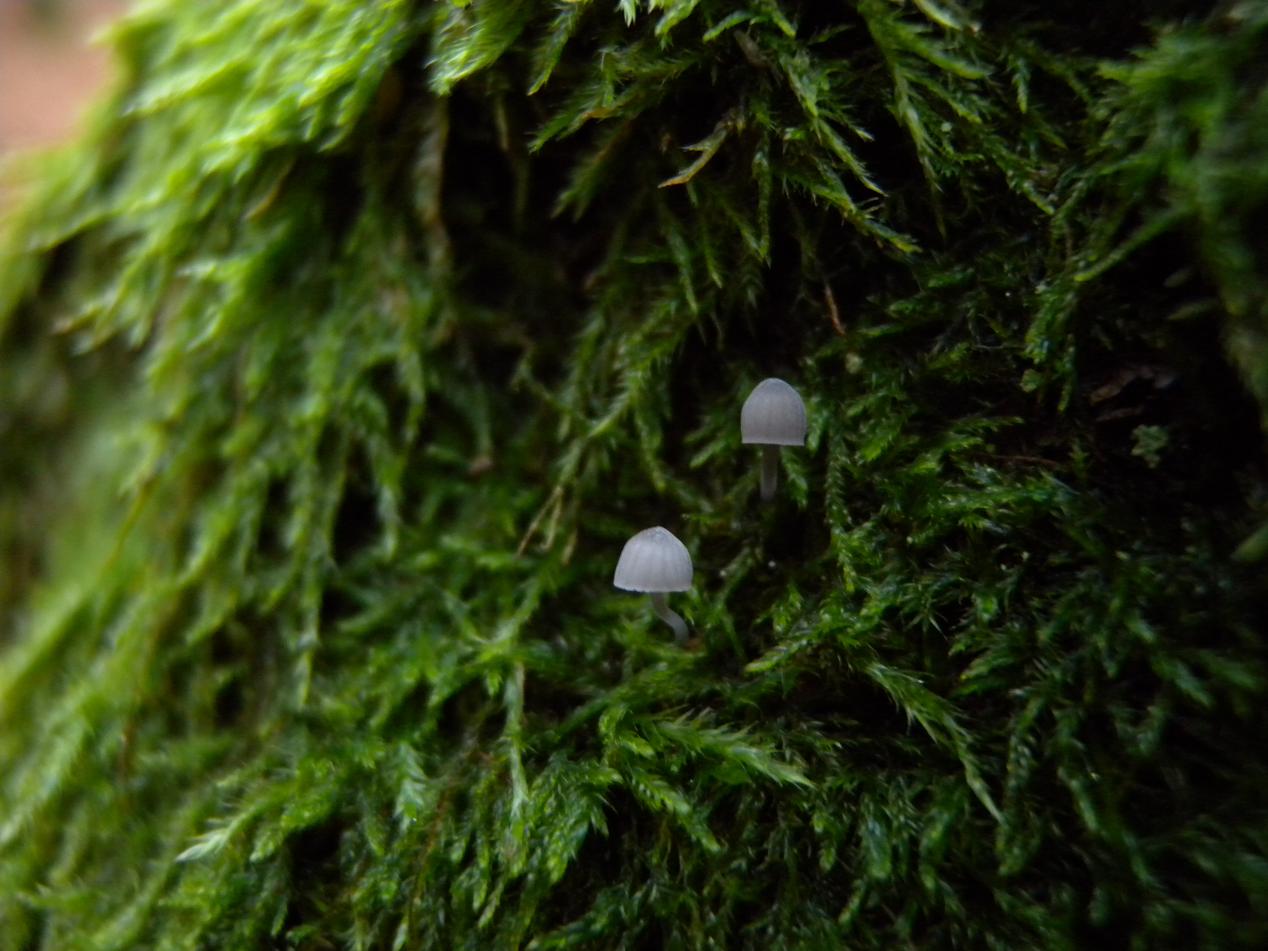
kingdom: Fungi
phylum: Basidiomycota
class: Agaricomycetes
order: Agaricales
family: Mycenaceae
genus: Mycena
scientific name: Mycena pseudocorticola
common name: gråblå bark-huesvamp
